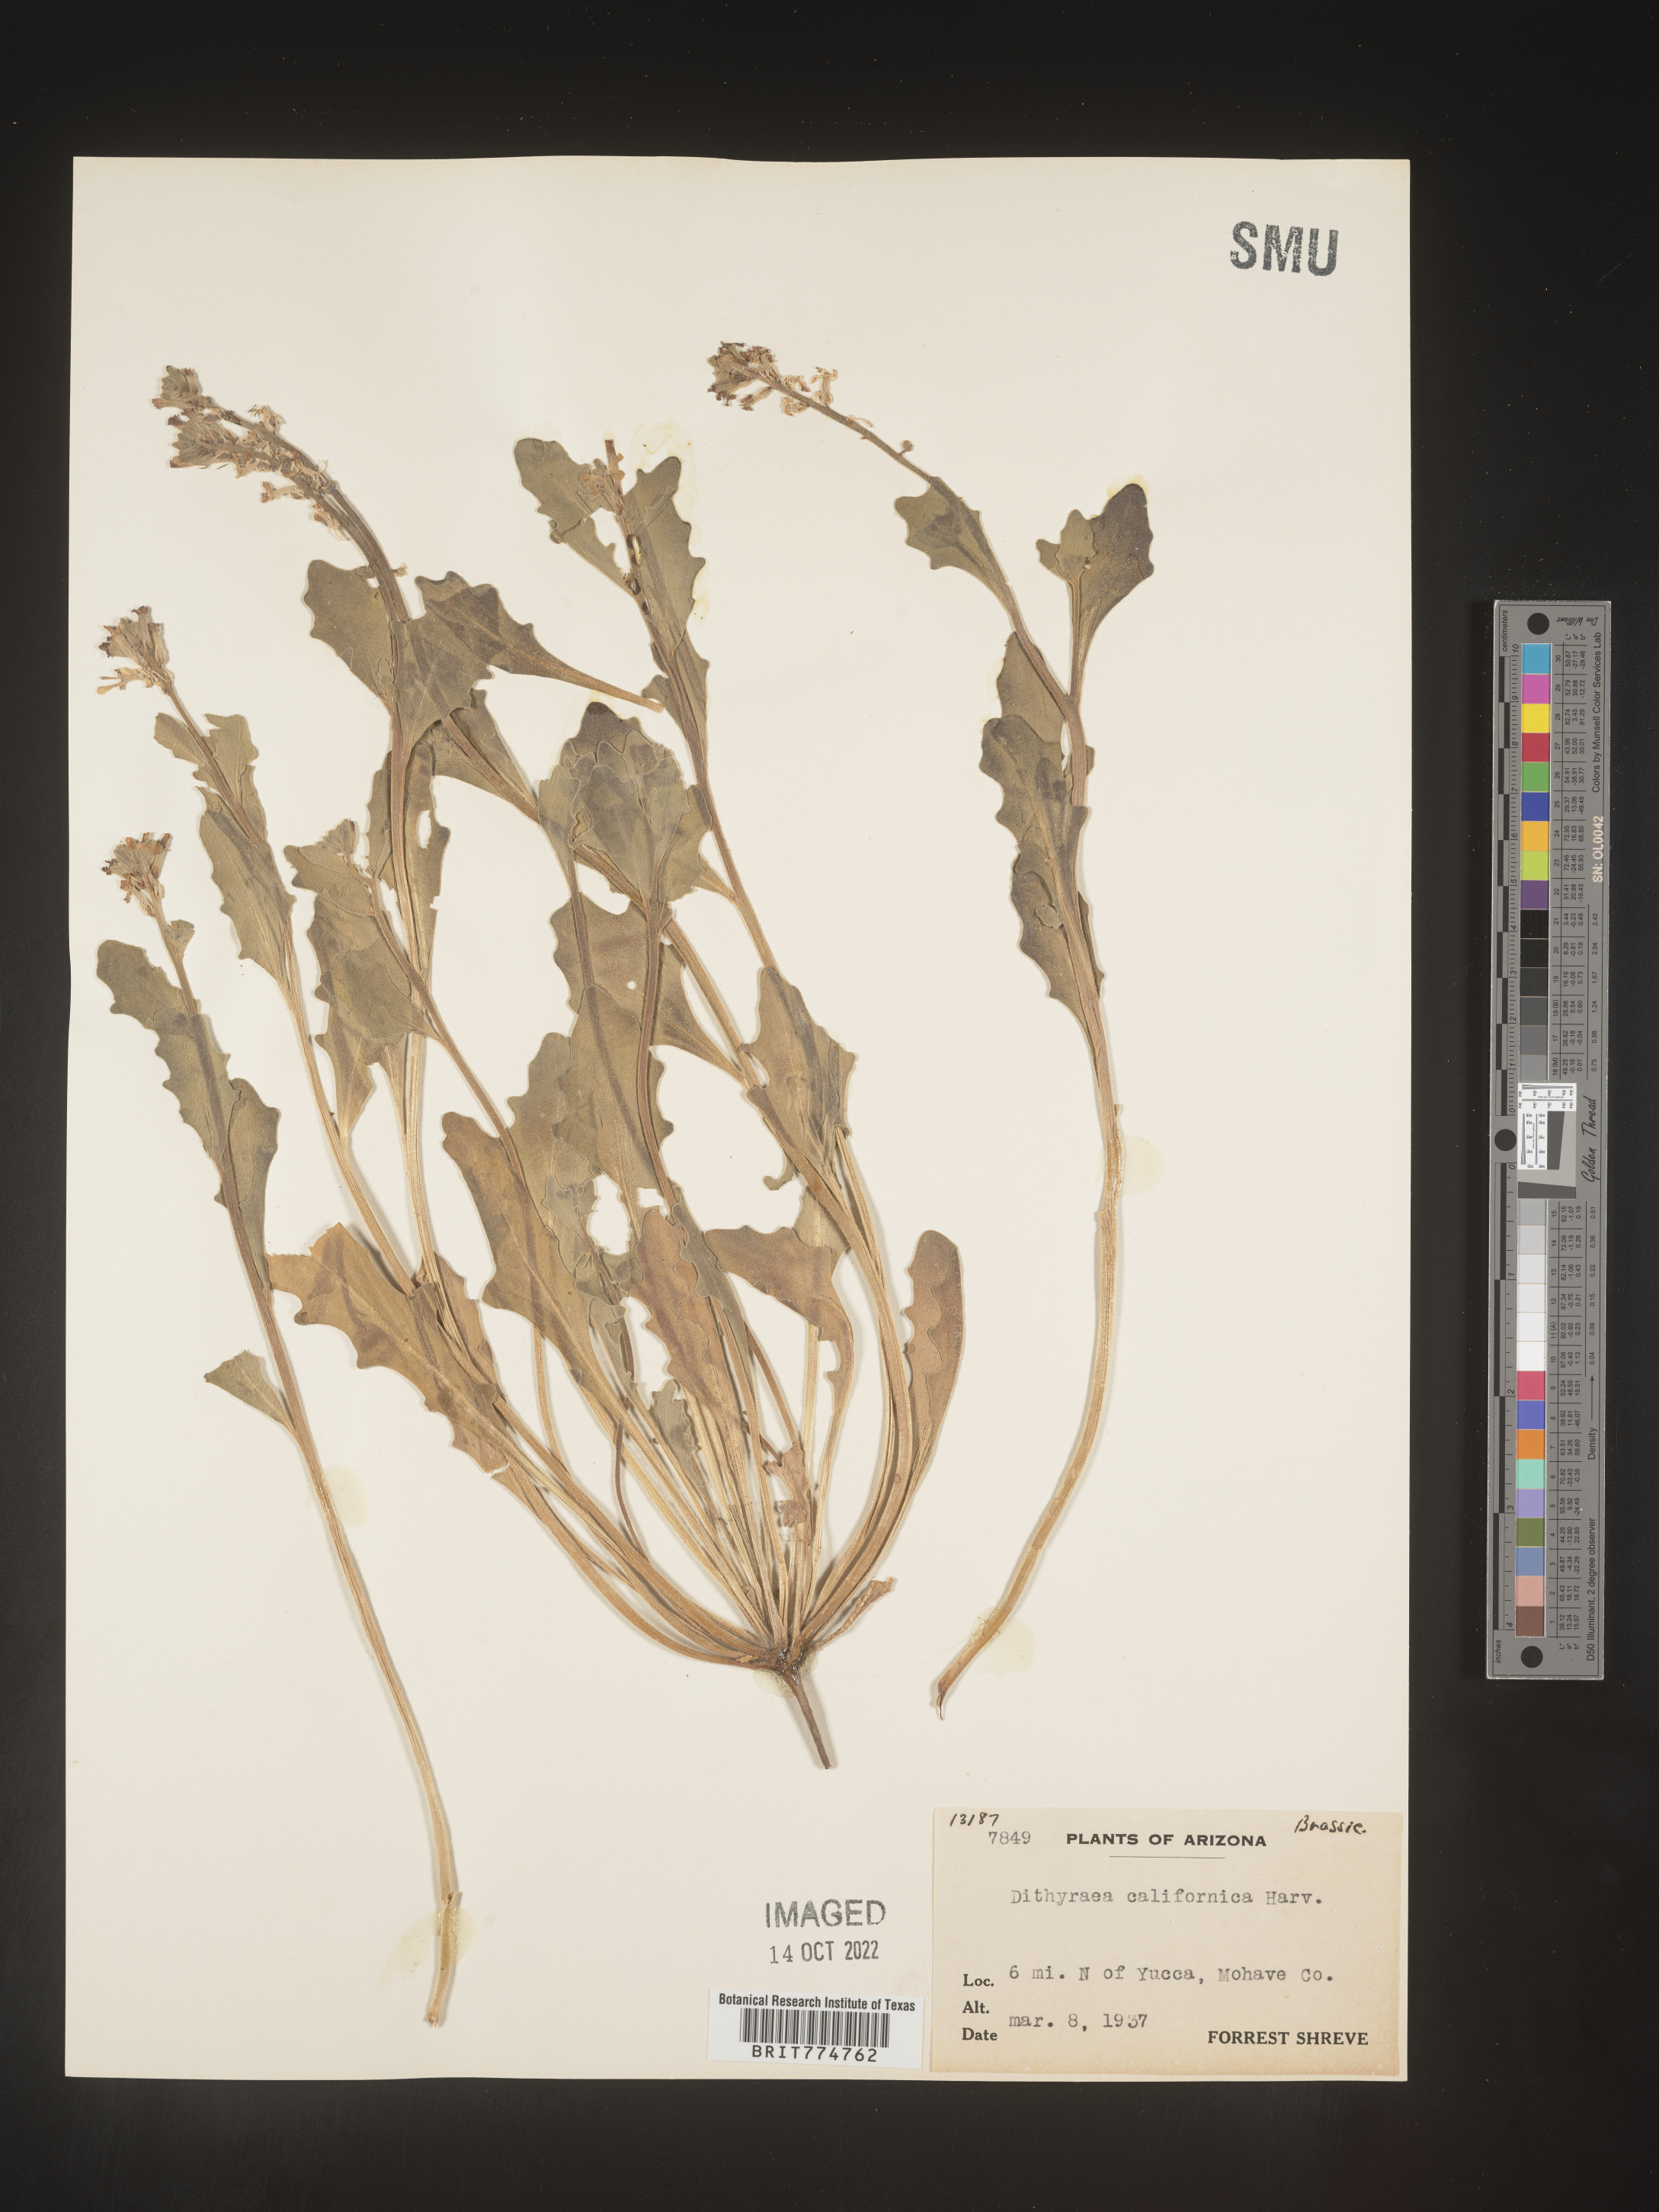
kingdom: Plantae
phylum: Tracheophyta
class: Magnoliopsida
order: Brassicales
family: Brassicaceae
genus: Dithyrea
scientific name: Dithyrea californica
